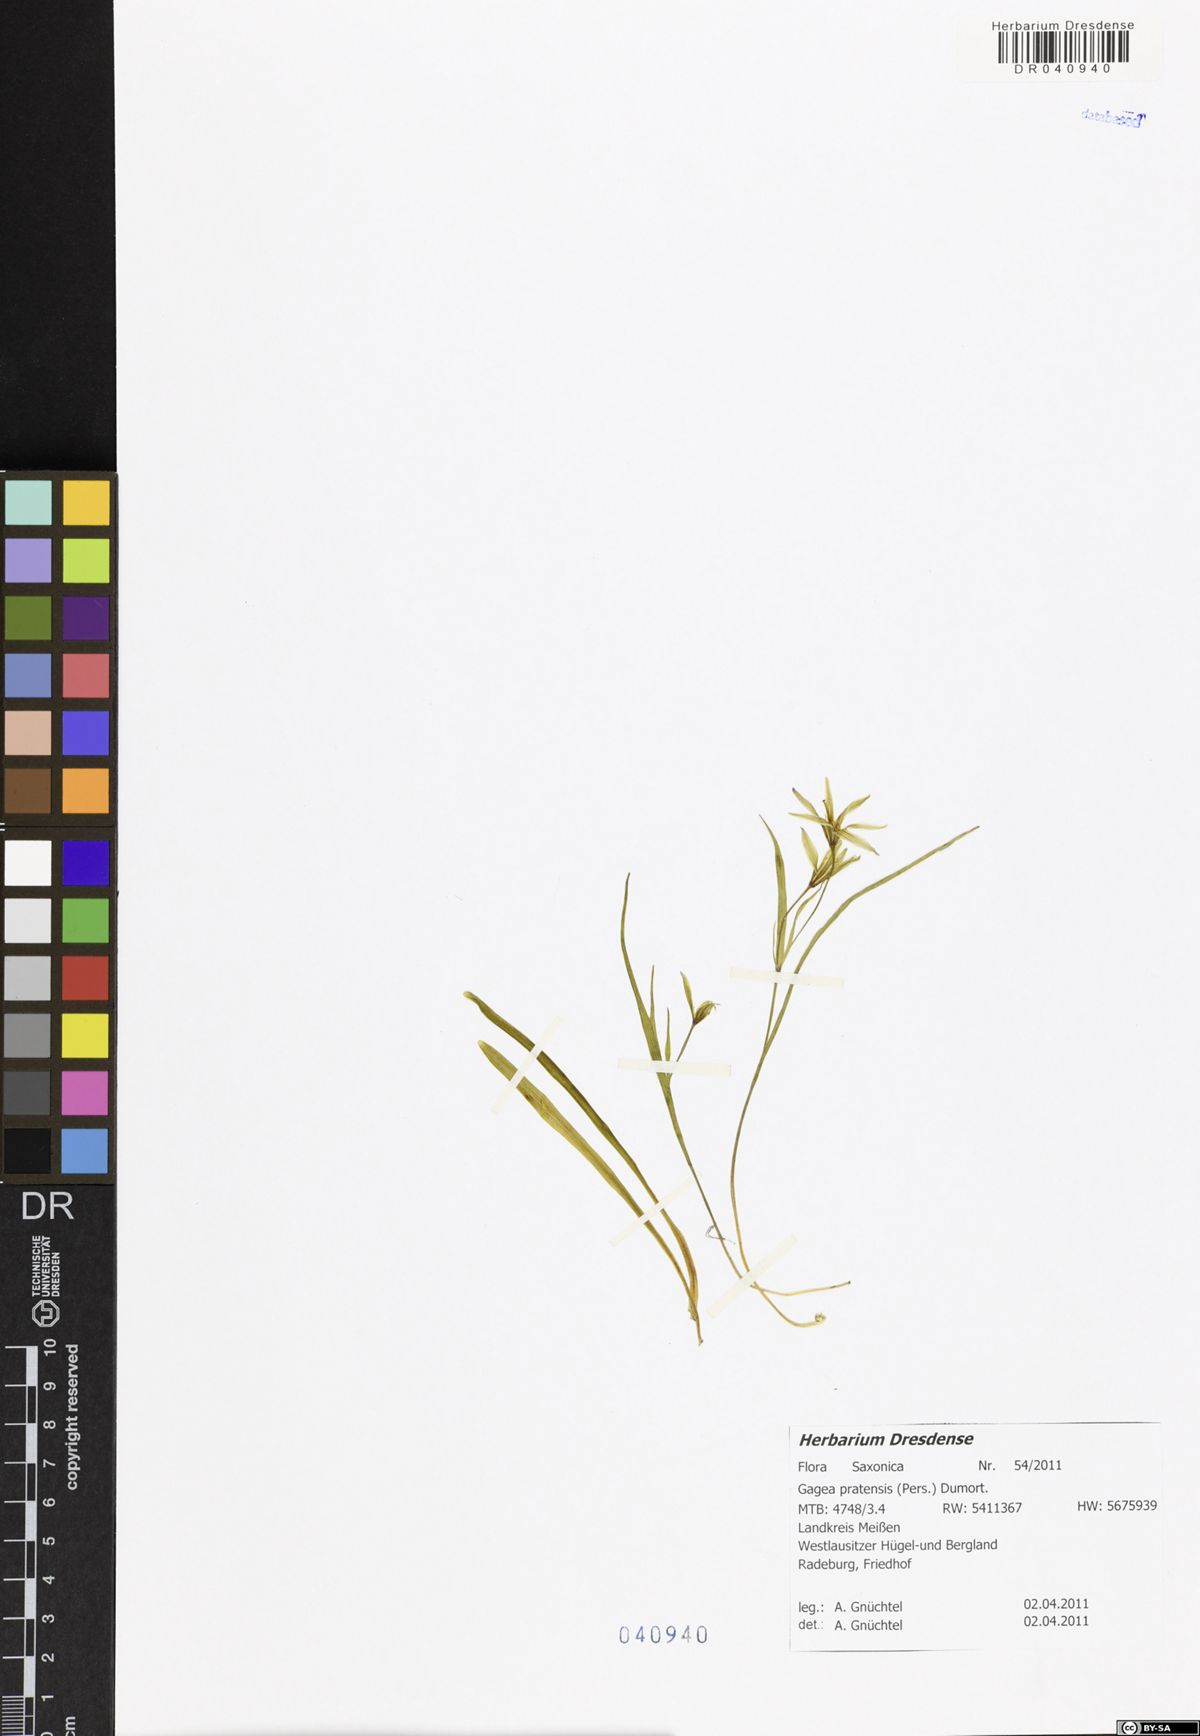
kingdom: Plantae
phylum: Tracheophyta
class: Liliopsida
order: Liliales
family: Liliaceae
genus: Gagea
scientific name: Gagea pratensis
